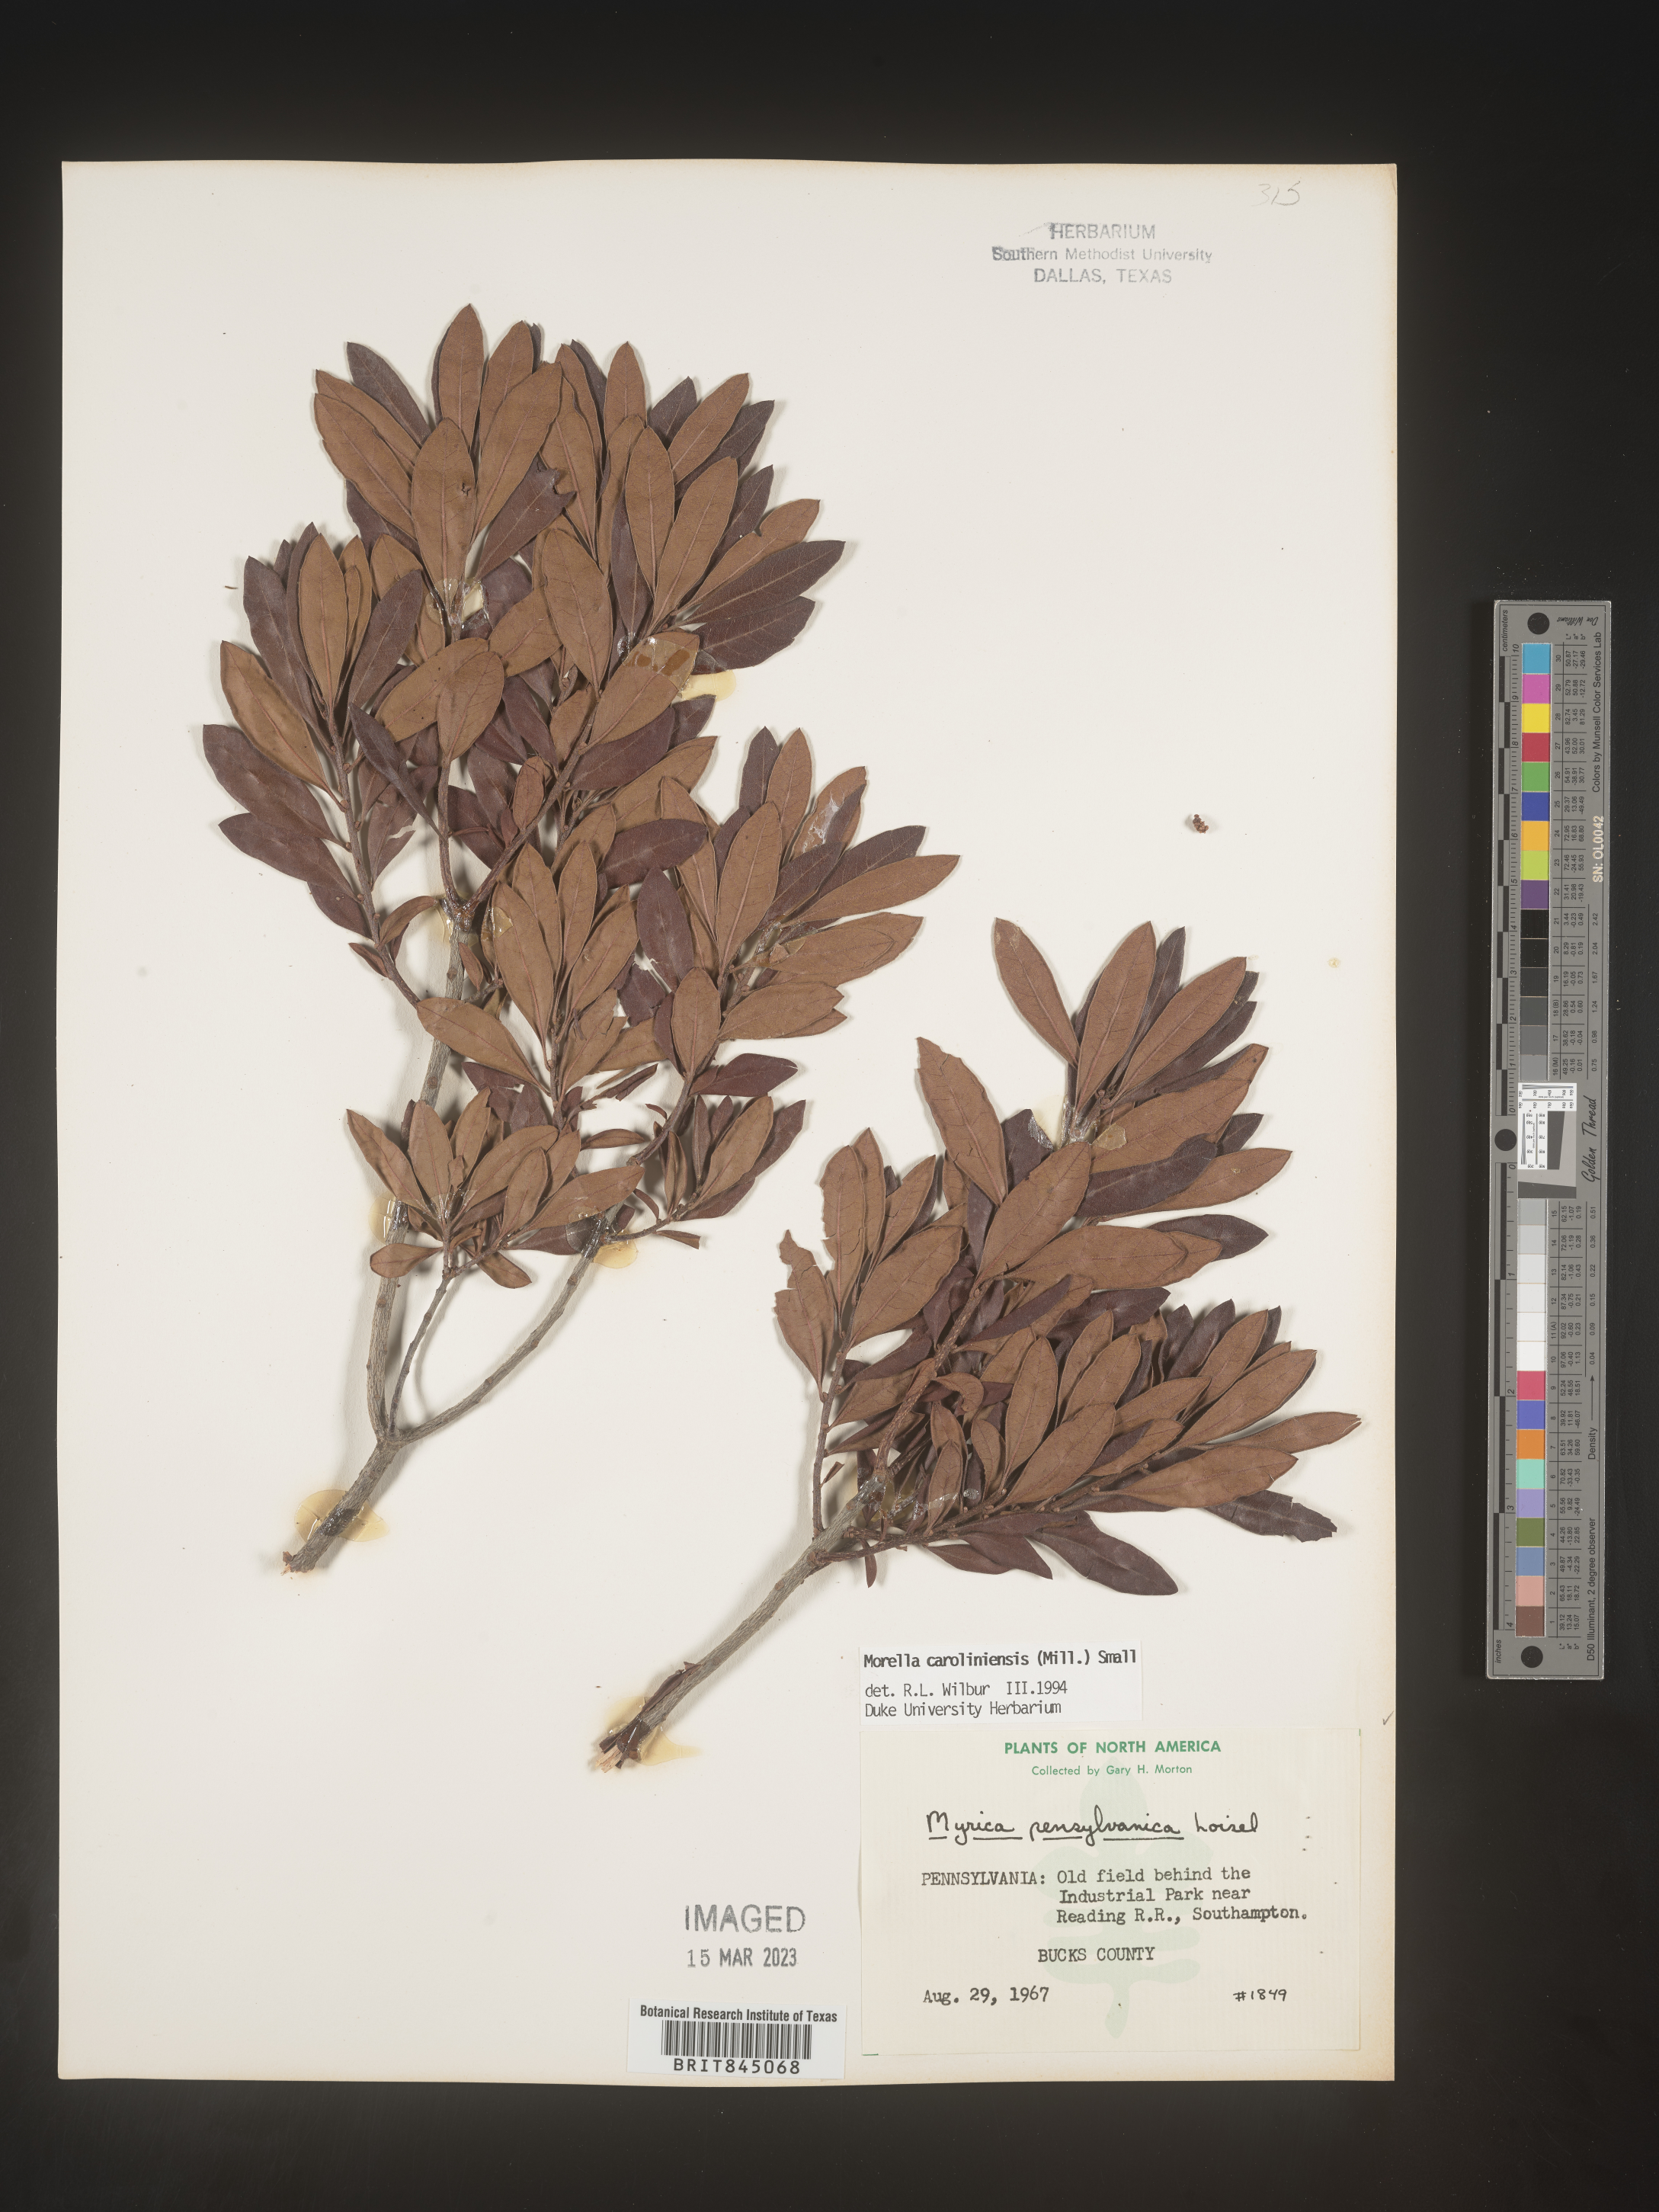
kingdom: Plantae
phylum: Tracheophyta
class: Magnoliopsida
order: Fagales
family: Myricaceae
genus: Morella
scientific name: Morella caroliniensis
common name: Evergreen bayberry
